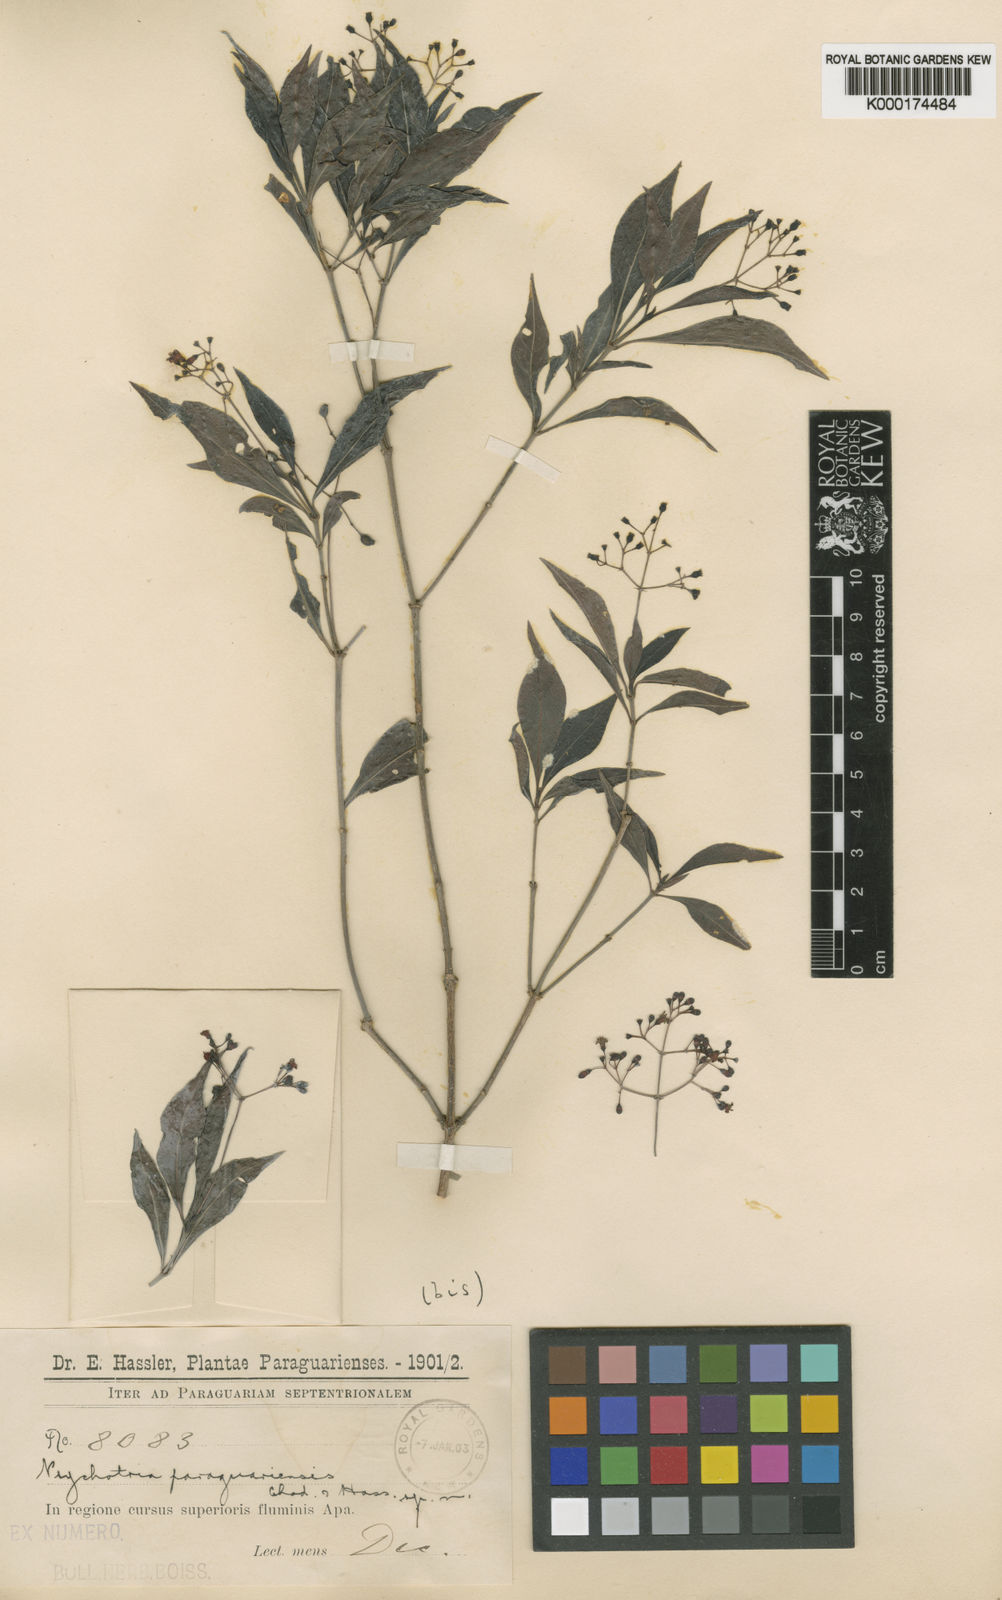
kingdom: Plantae
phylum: Tracheophyta
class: Magnoliopsida
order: Gentianales
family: Rubiaceae
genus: Psychotria
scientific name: Psychotria capillacea
